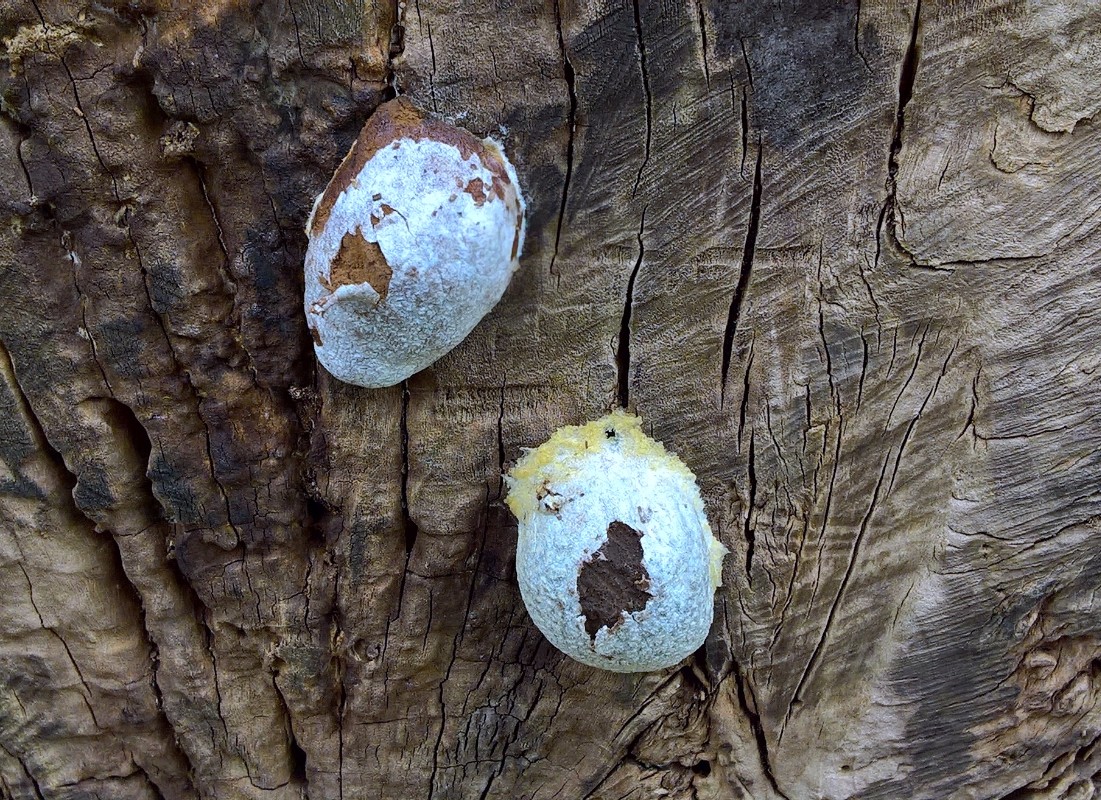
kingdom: Protozoa
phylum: Mycetozoa
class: Myxomycetes
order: Cribrariales
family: Tubiferaceae
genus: Reticularia
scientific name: Reticularia lycoperdon
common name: skinnende støvpude
